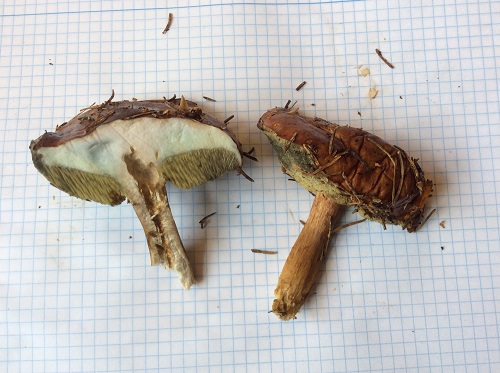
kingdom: Fungi
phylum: Basidiomycota
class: Agaricomycetes
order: Boletales
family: Boletaceae
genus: Imleria
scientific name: Imleria badia
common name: brunstokket rørhat
